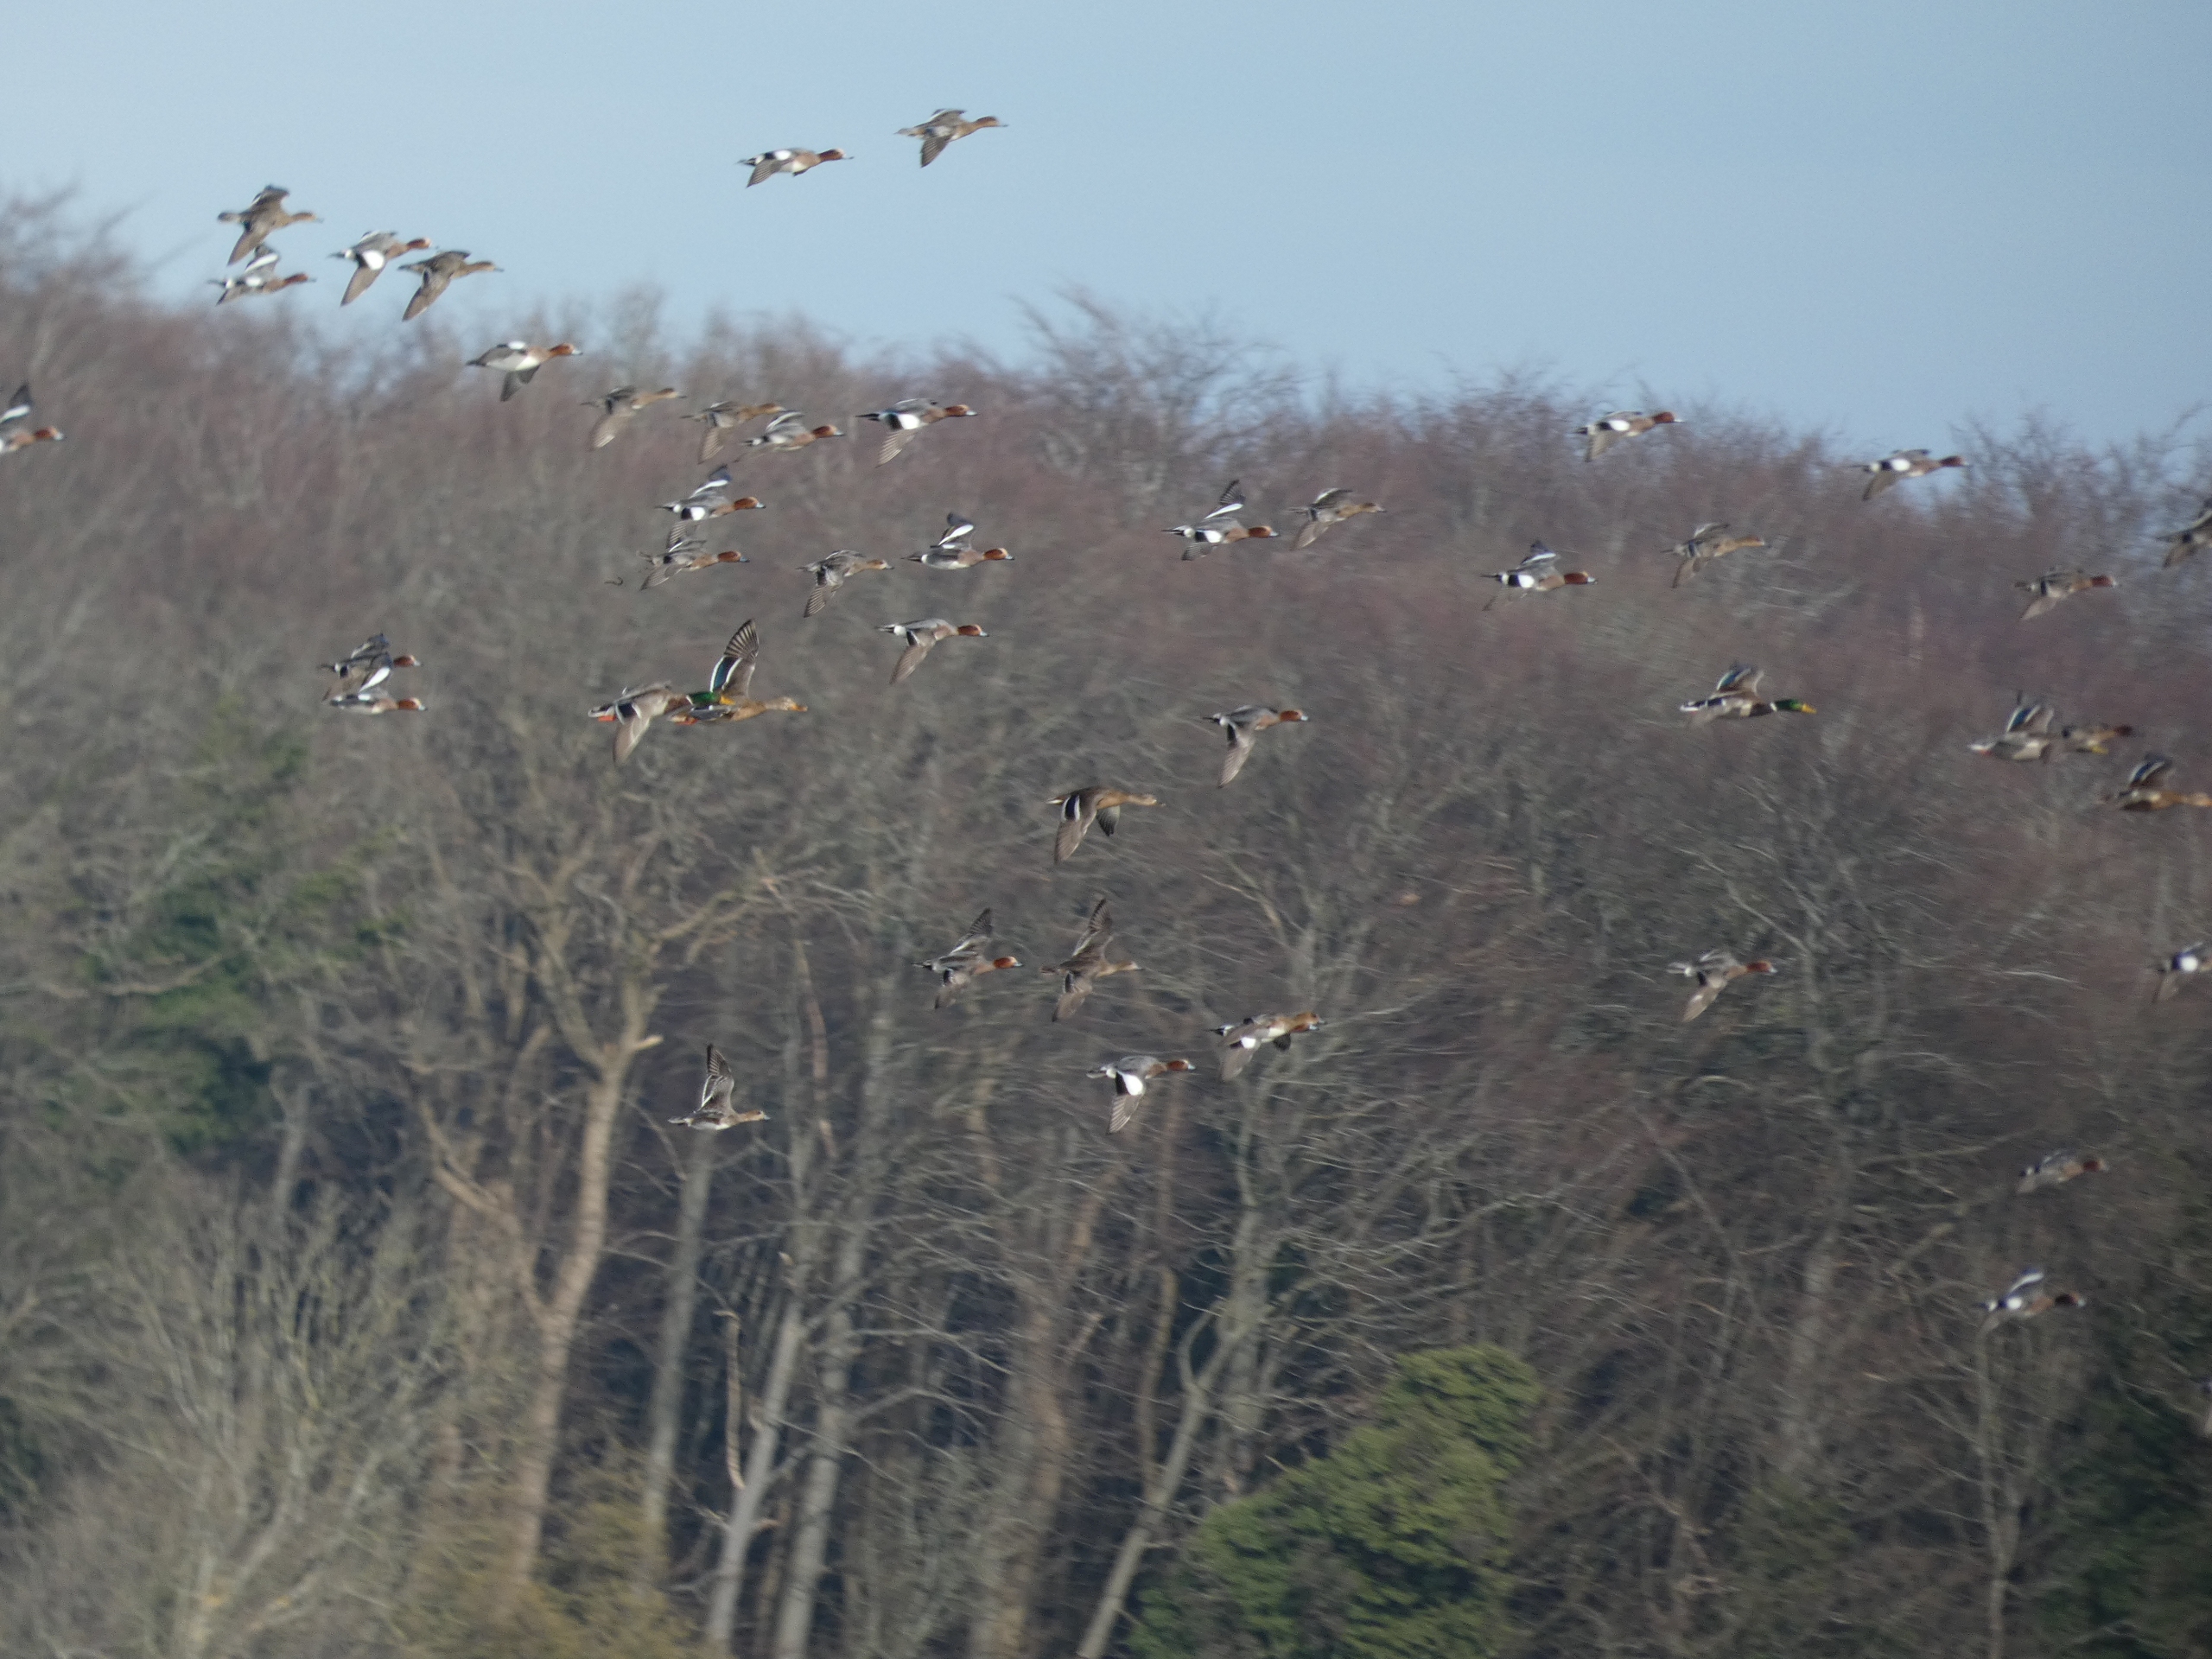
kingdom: Animalia
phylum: Chordata
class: Aves
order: Anseriformes
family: Anatidae
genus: Mareca
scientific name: Mareca penelope
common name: Pibeand
